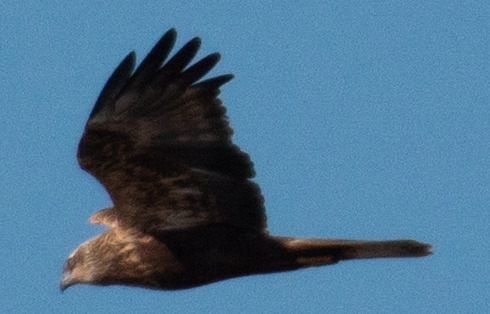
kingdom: Animalia
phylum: Chordata
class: Aves
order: Accipitriformes
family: Accipitridae
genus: Circus
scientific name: Circus aeruginosus
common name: Rørhøg
